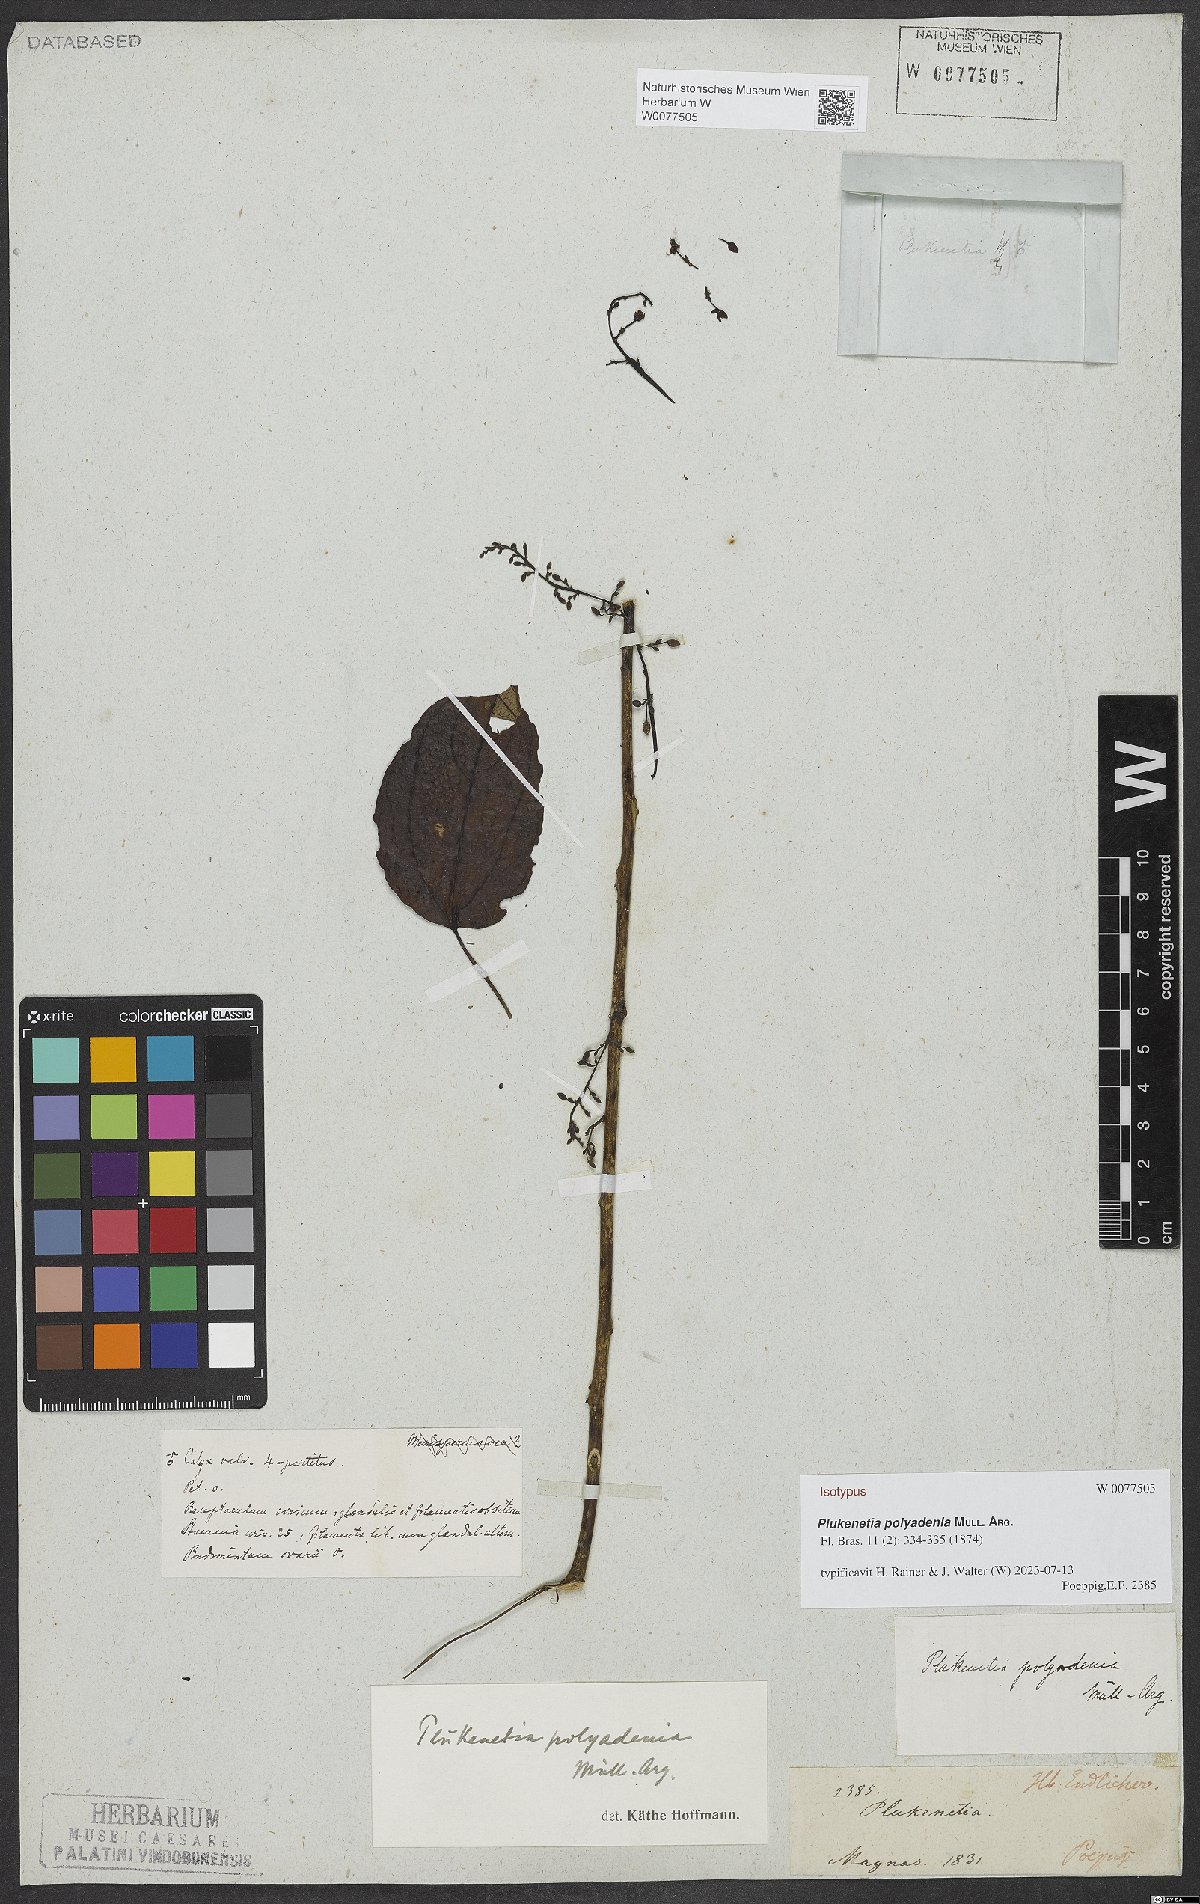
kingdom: Plantae
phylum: Tracheophyta
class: Magnoliopsida
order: Malpighiales
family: Euphorbiaceae
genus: Plukenetia
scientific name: Plukenetia polyadenia
